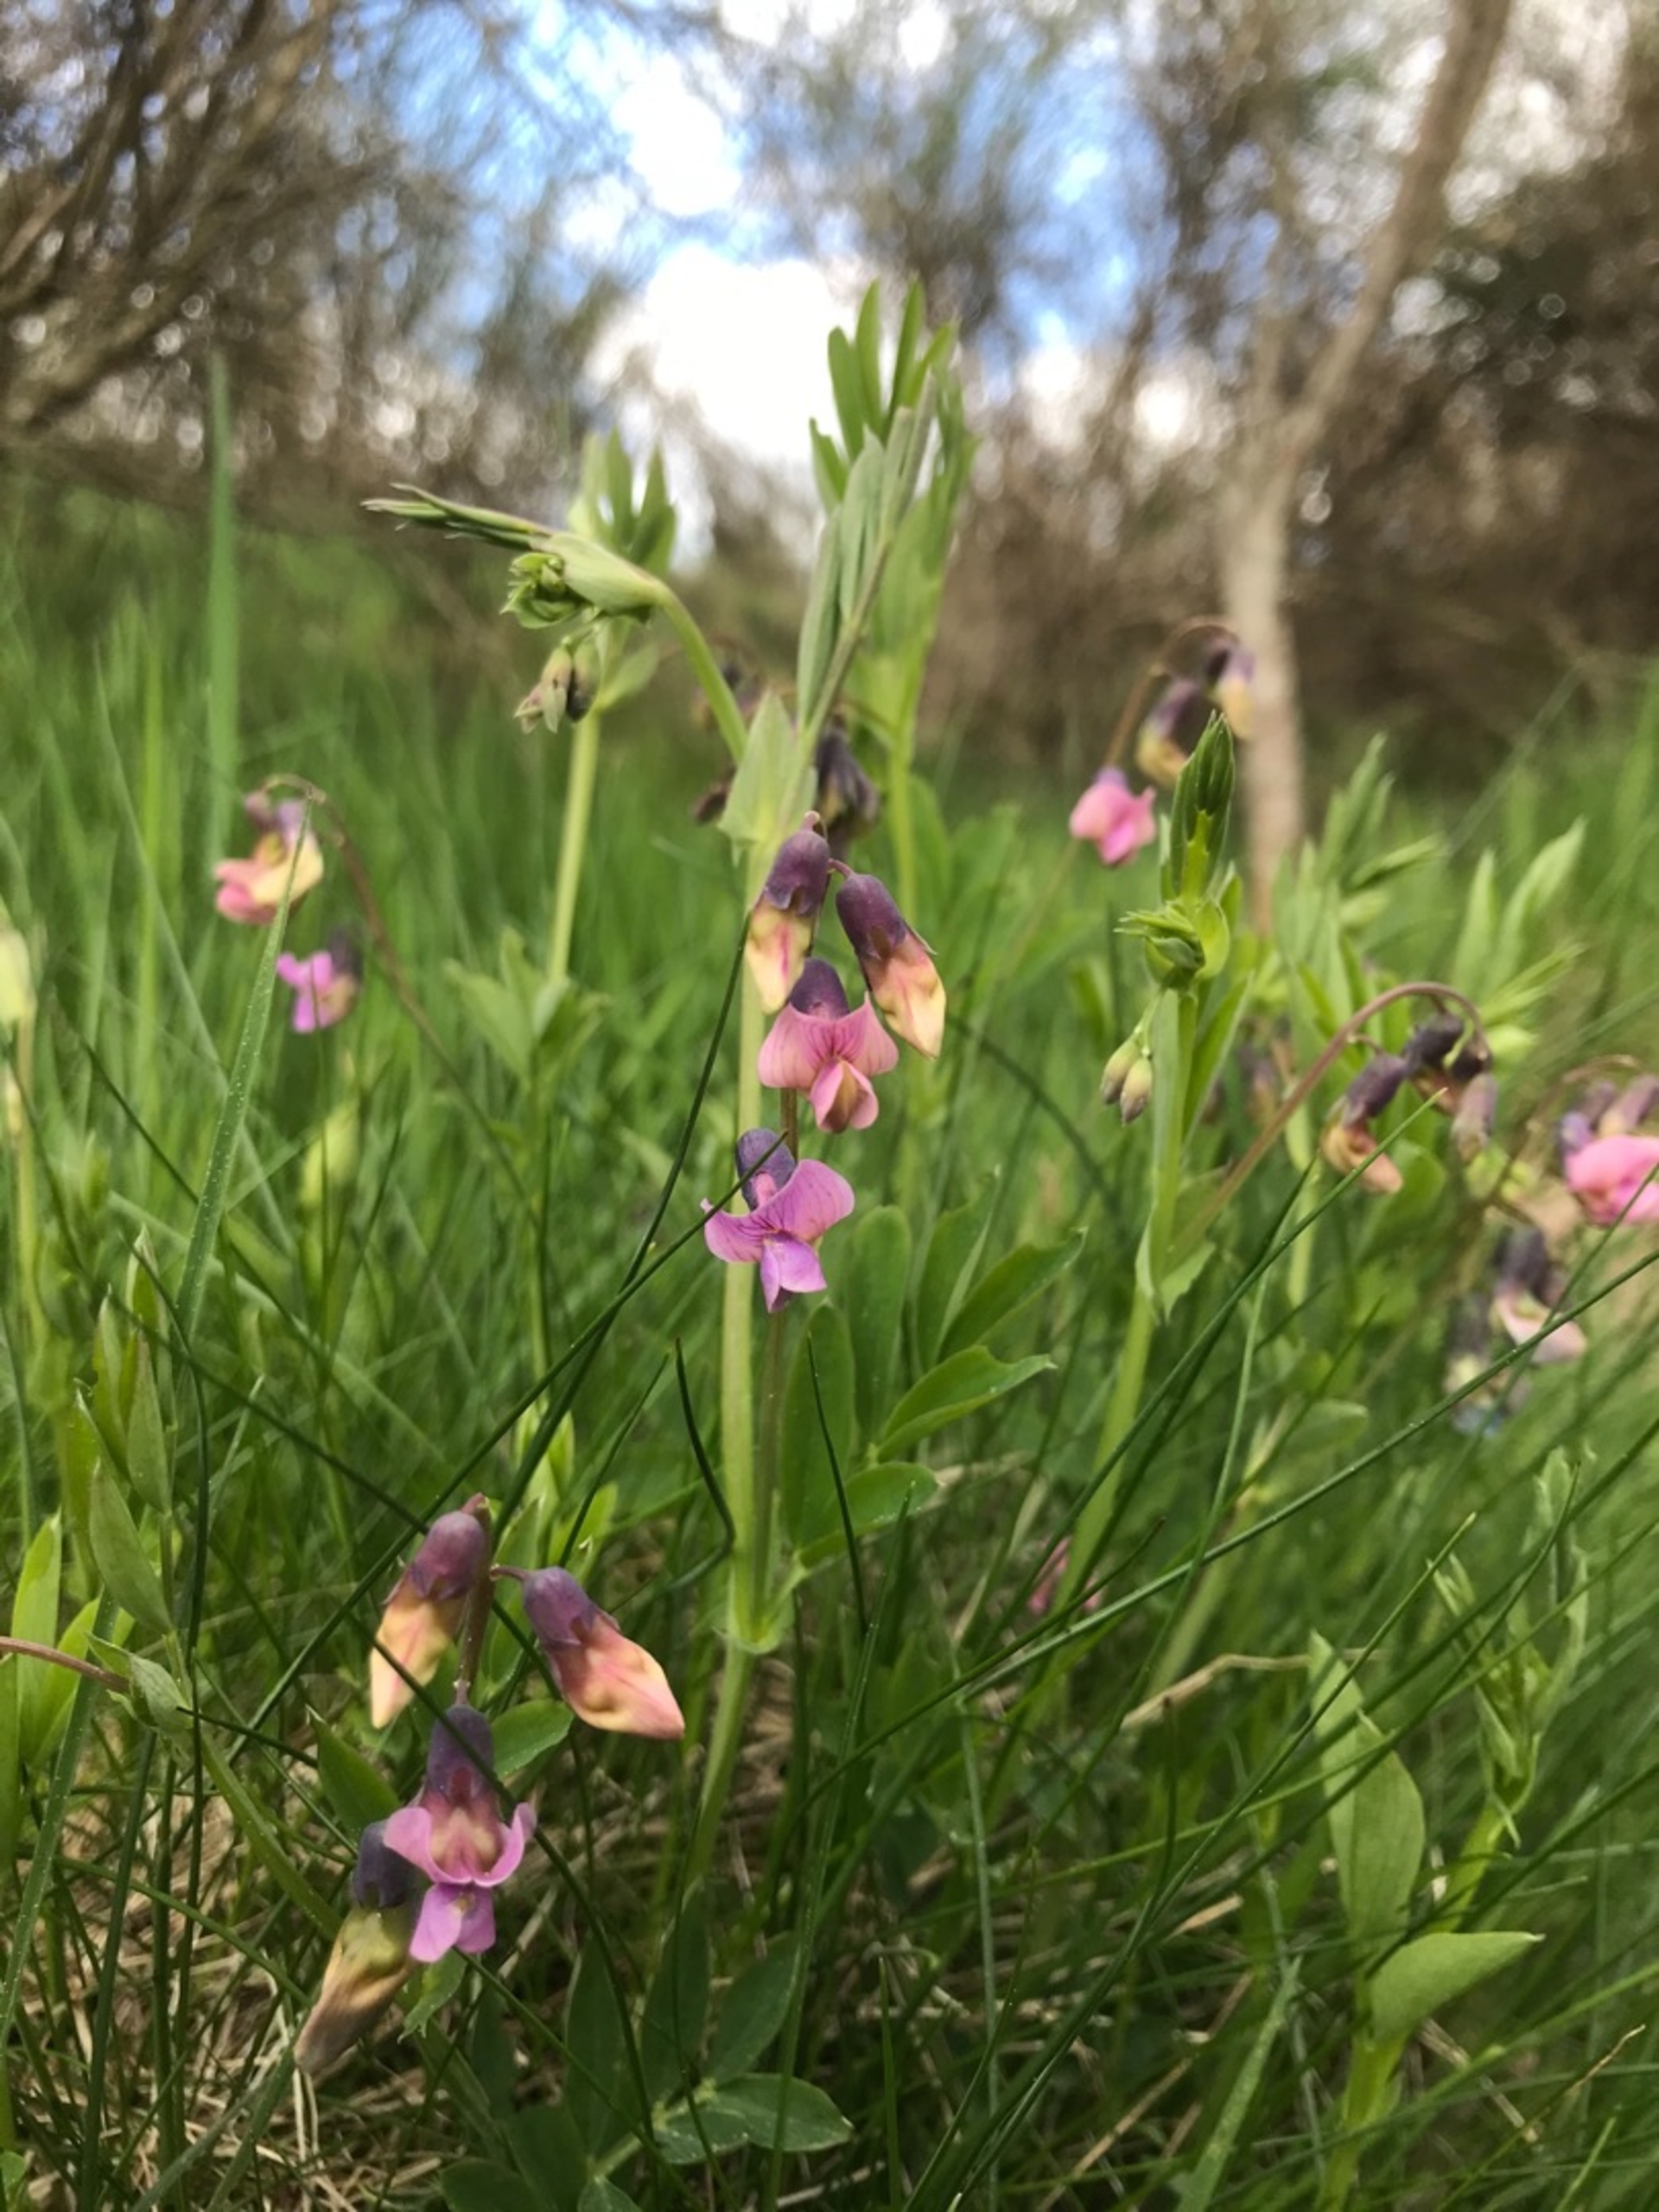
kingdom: Plantae
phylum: Tracheophyta
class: Magnoliopsida
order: Fabales
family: Fabaceae
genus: Lathyrus
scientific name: Lathyrus linifolius
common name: Krat-fladbælg
